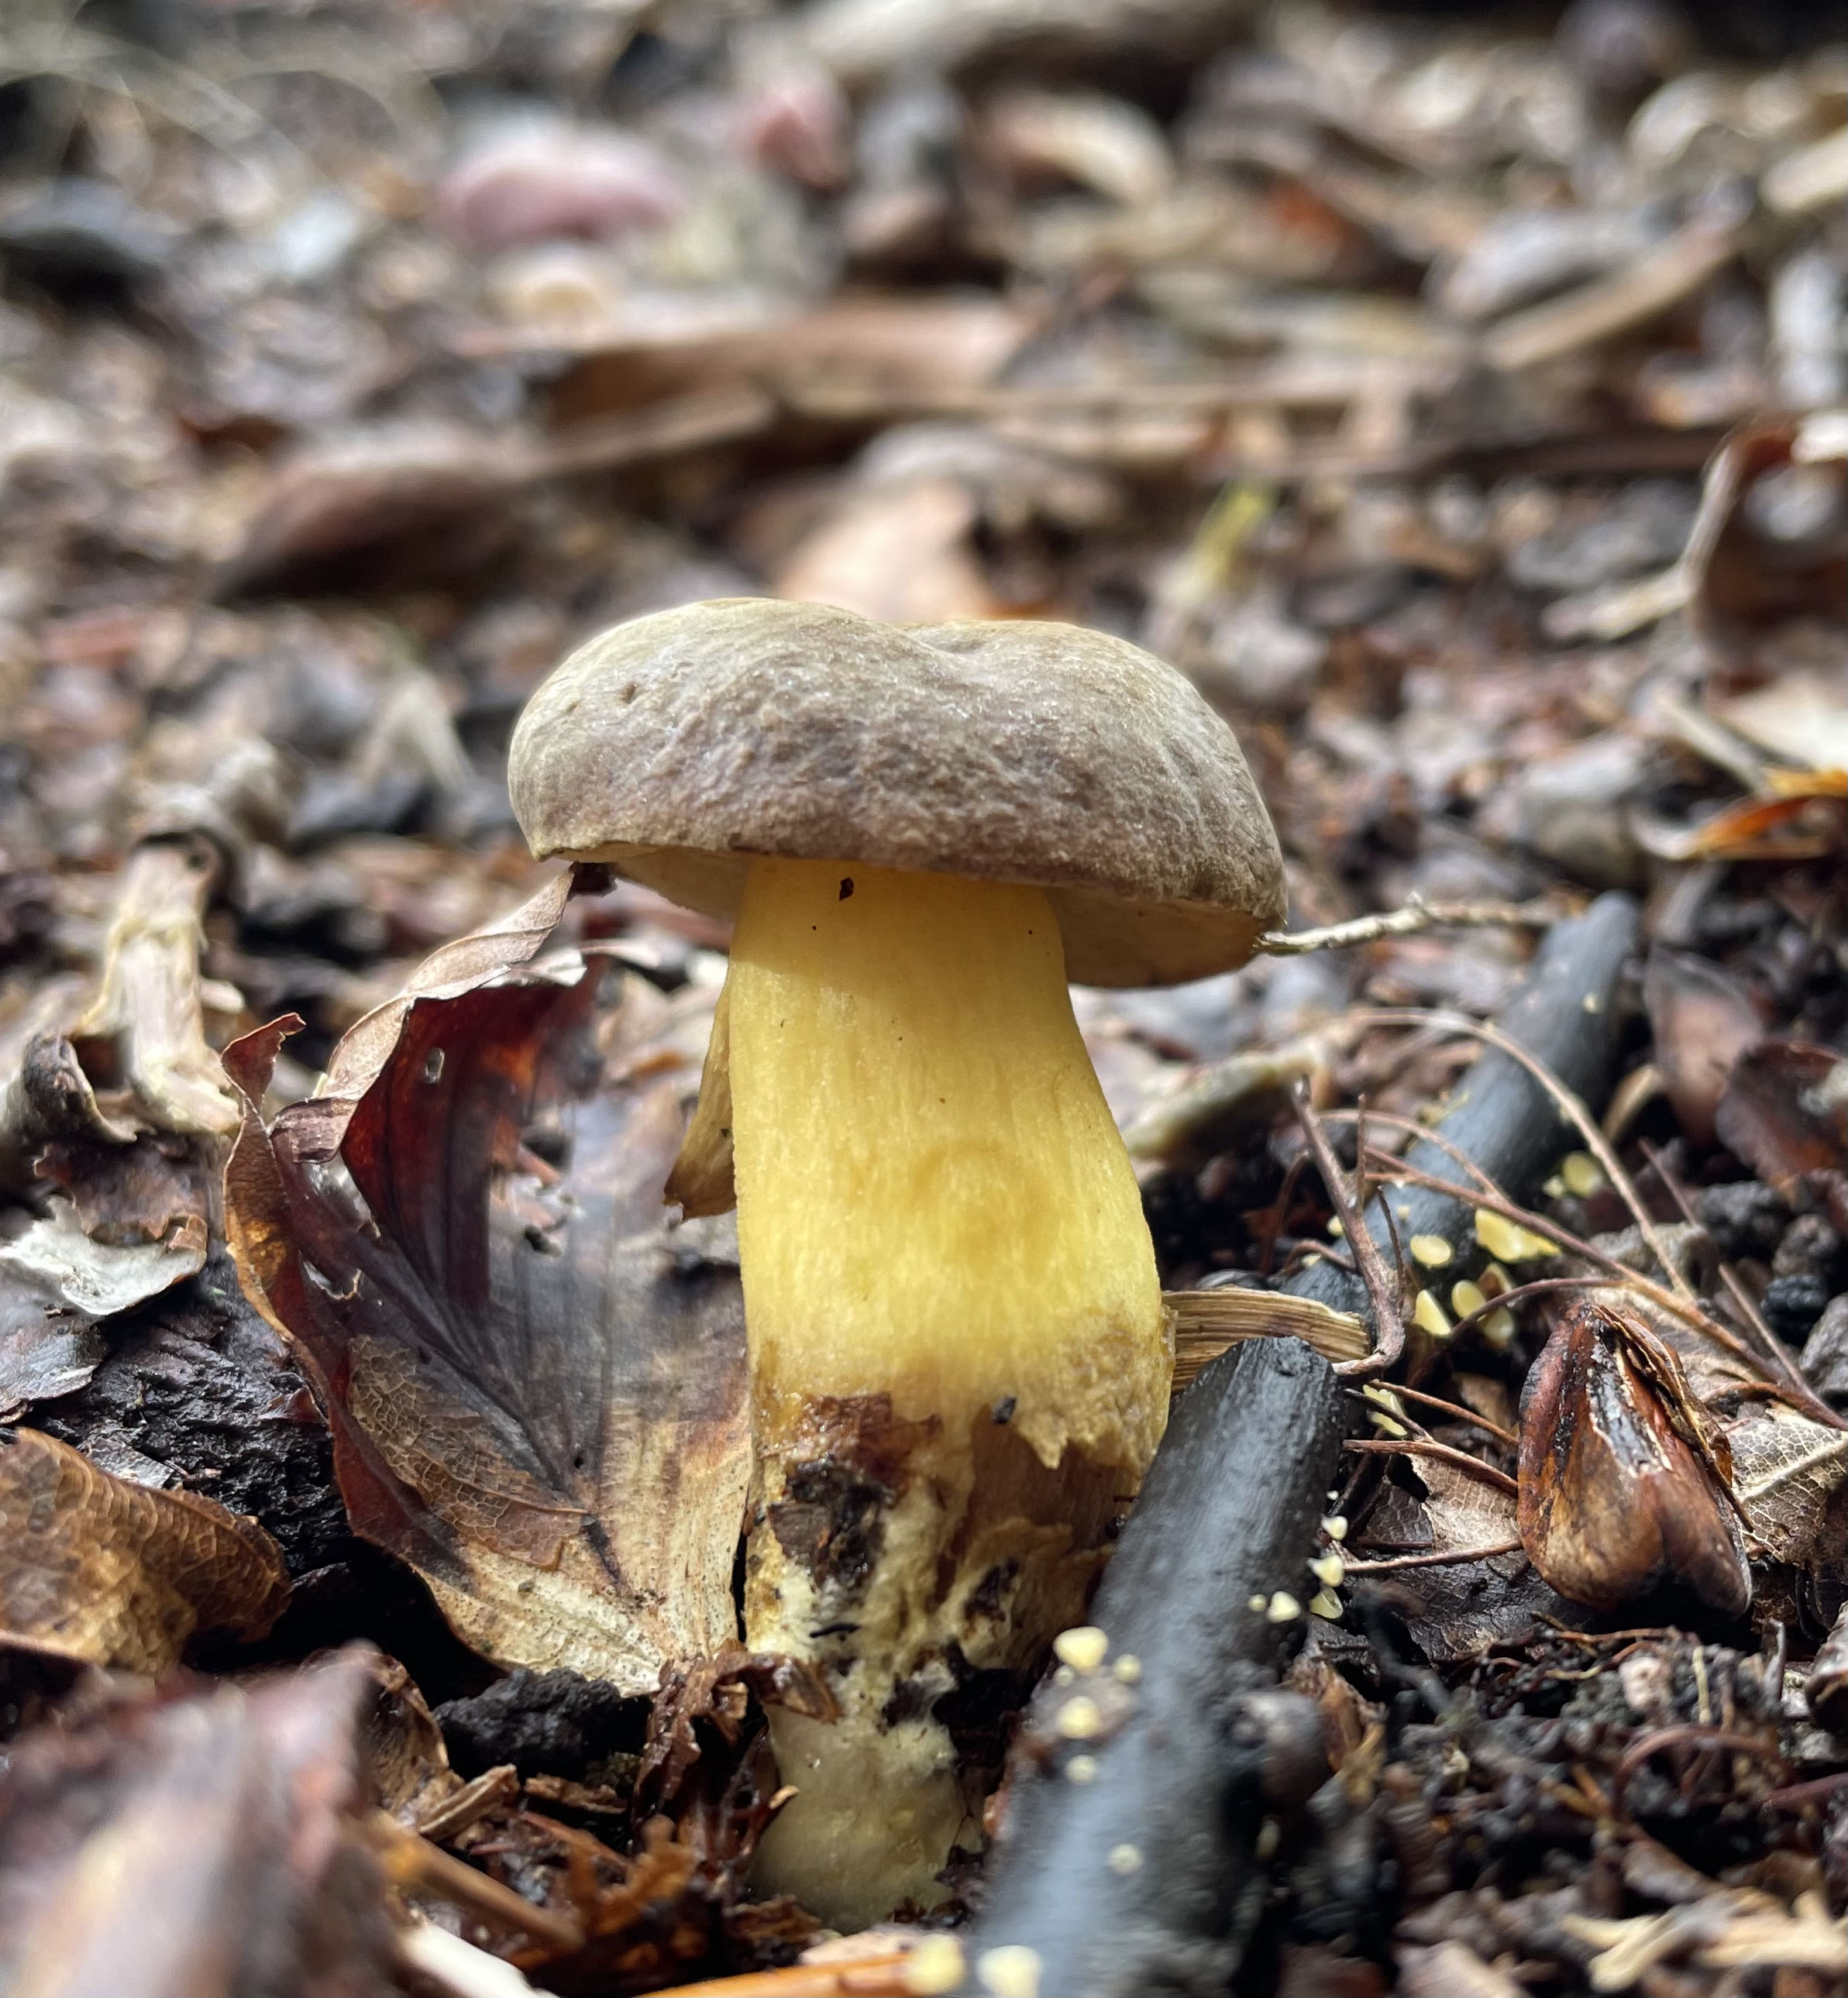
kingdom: Fungi
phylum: Basidiomycota
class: Agaricomycetes
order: Boletales
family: Boletaceae
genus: Xerocomellus
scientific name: Xerocomellus pruinatus
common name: dugget rørhat
